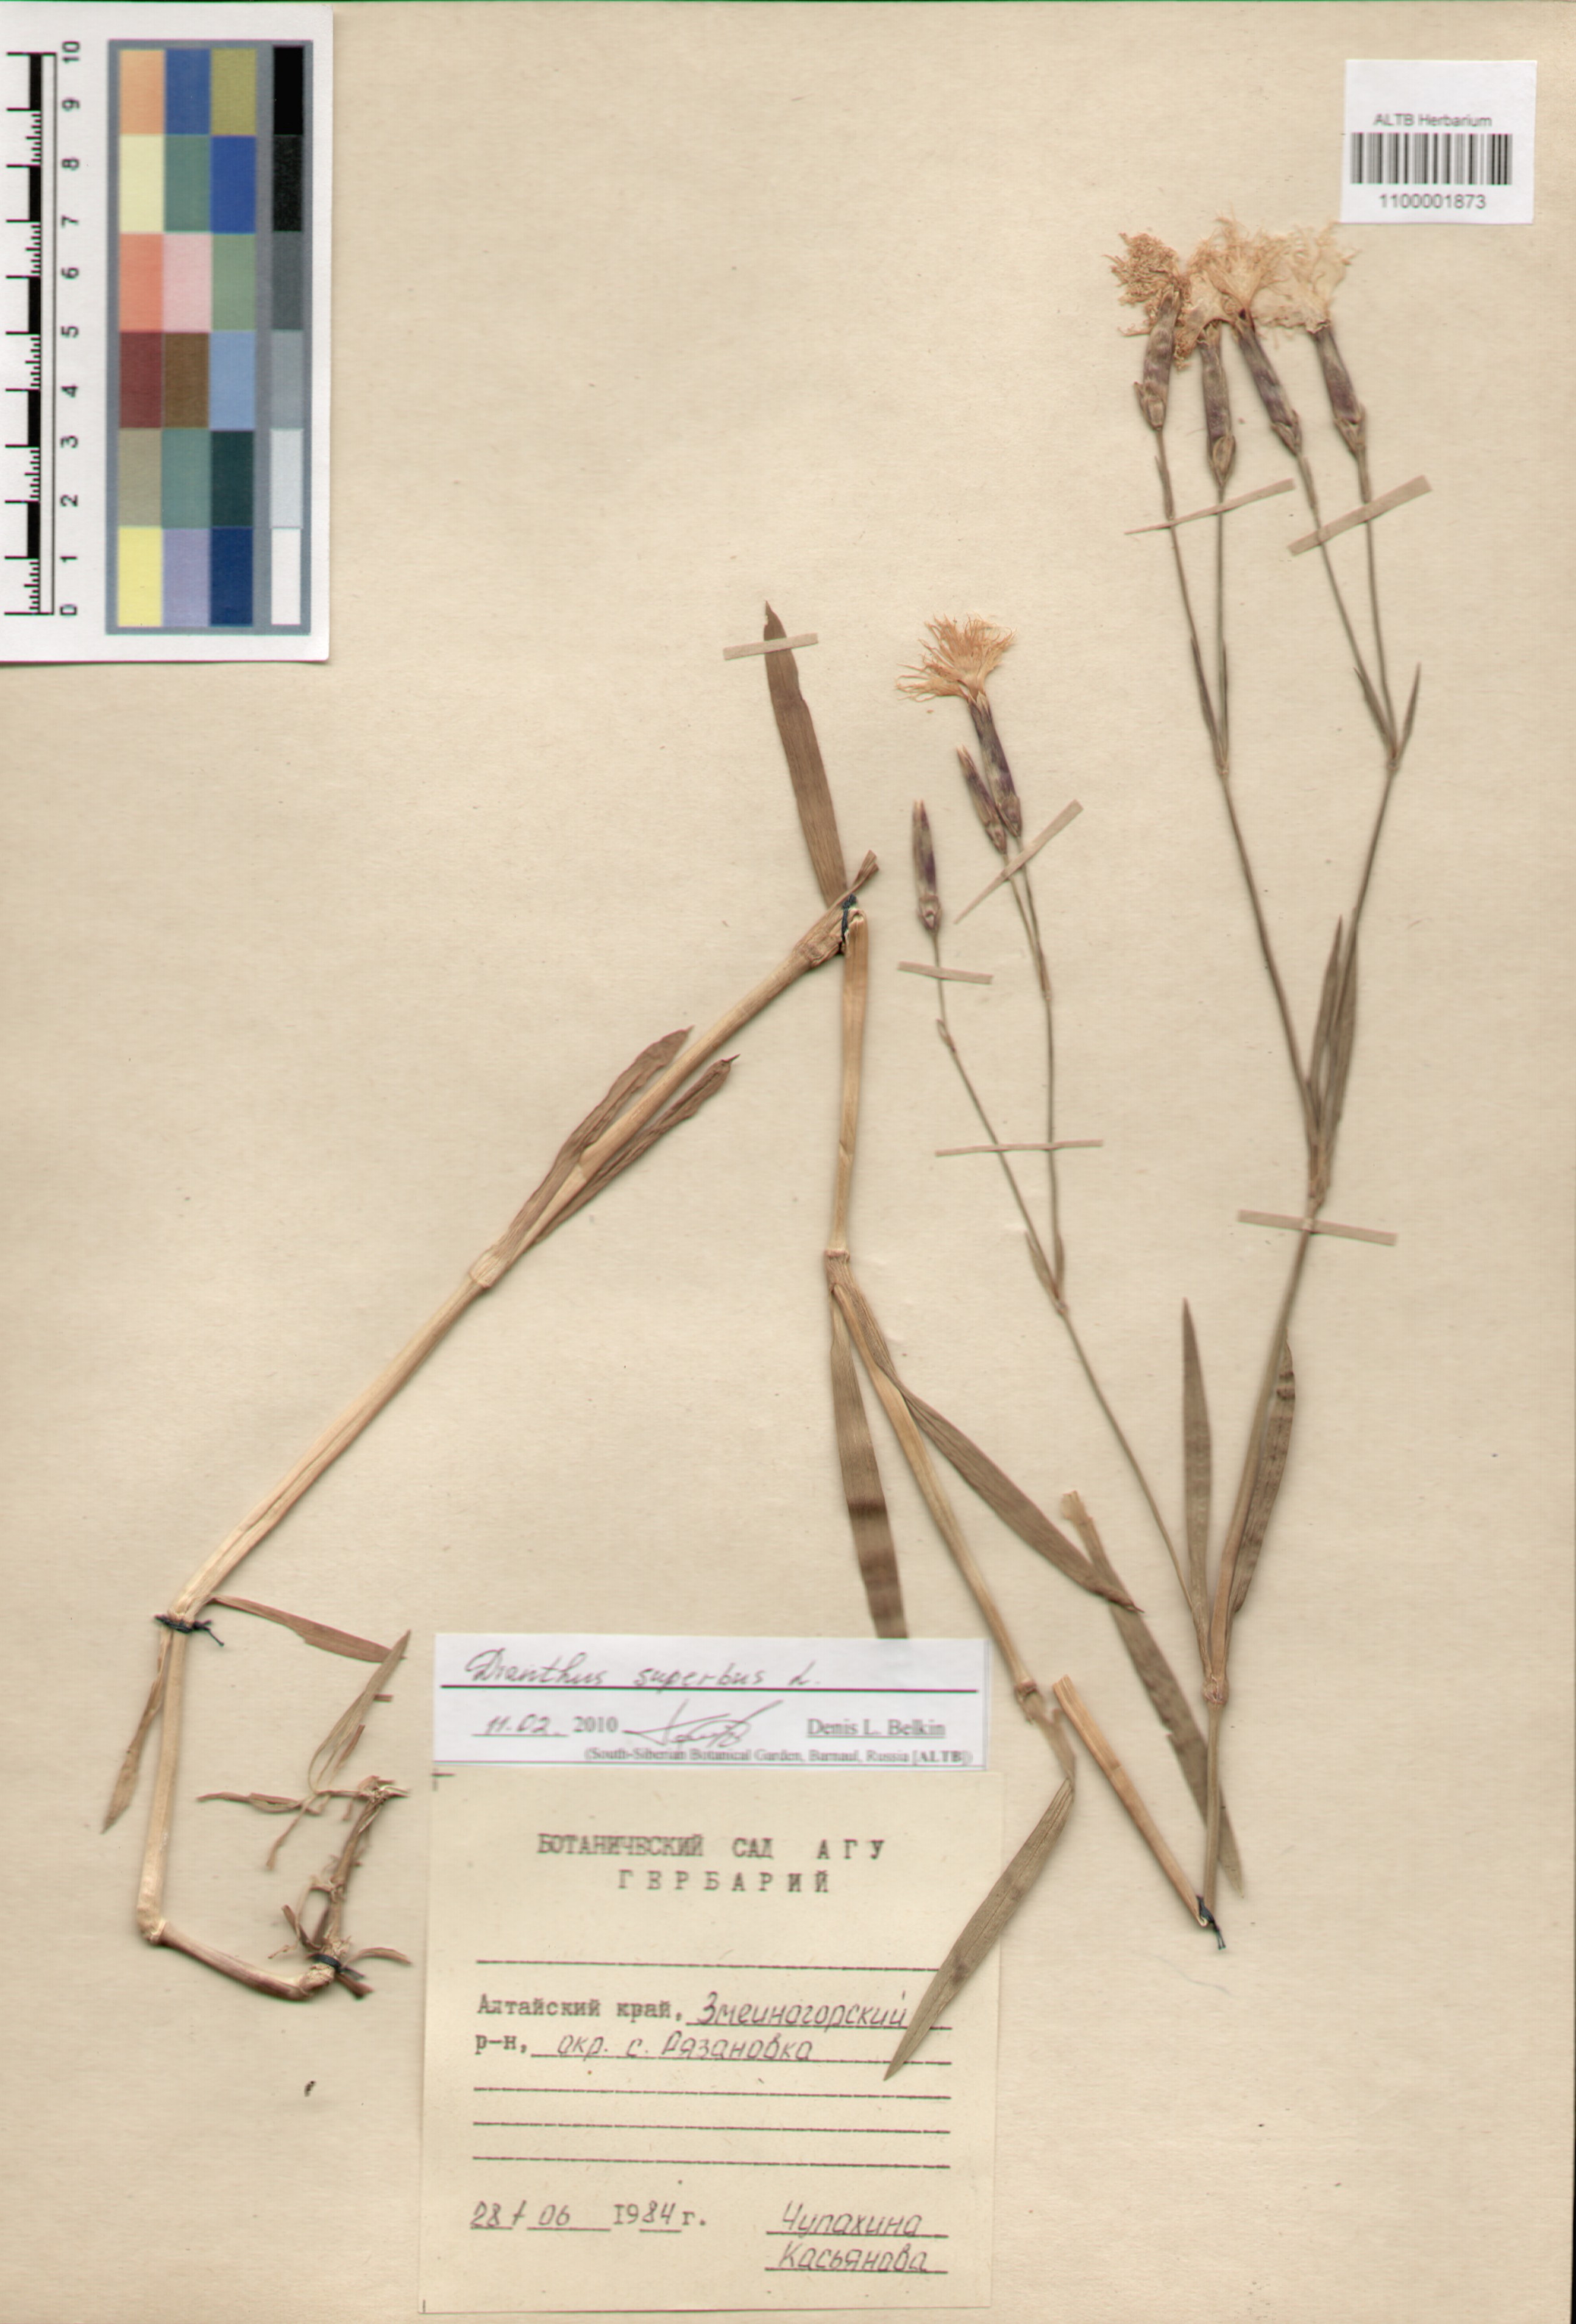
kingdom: Plantae
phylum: Tracheophyta
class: Magnoliopsida
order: Caryophyllales
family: Caryophyllaceae
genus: Dianthus
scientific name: Dianthus superbus
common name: Fringed pink
